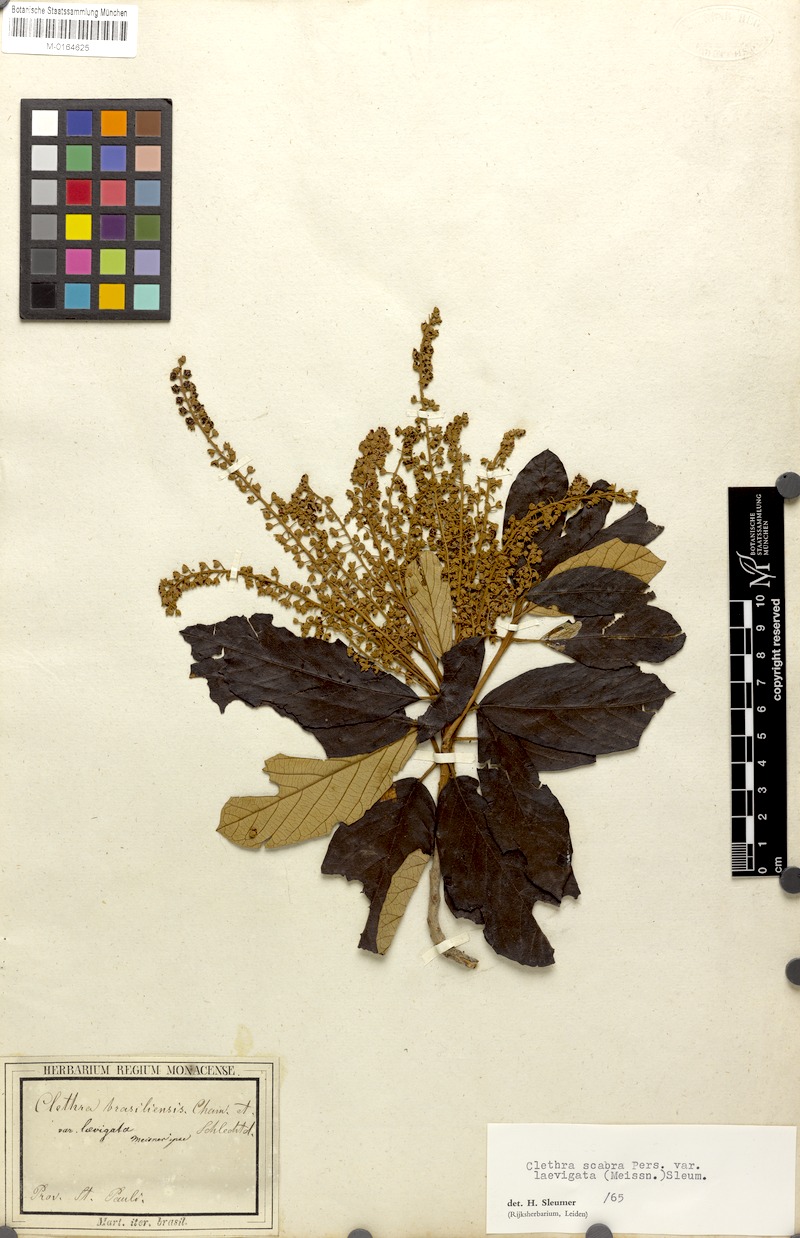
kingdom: Plantae
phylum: Tracheophyta
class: Magnoliopsida
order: Ericales
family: Clethraceae
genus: Clethra
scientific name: Clethra scabra
